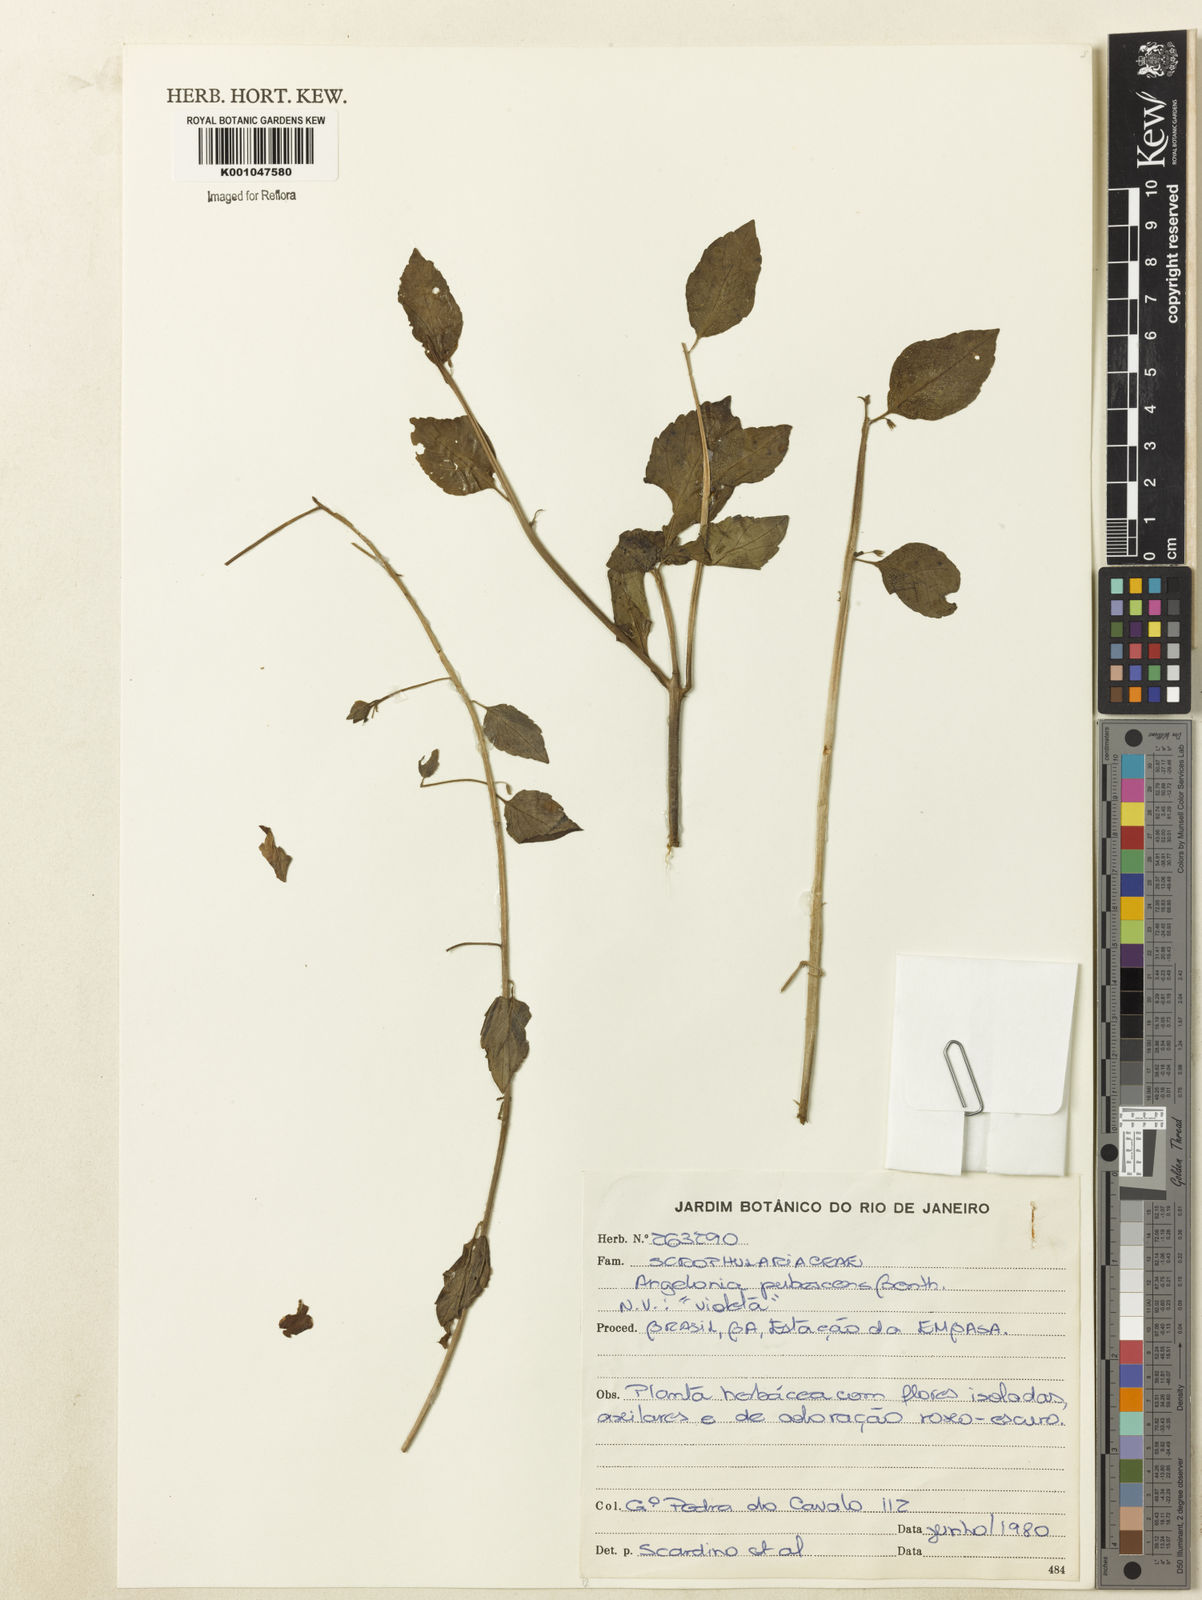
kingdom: Plantae
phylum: Tracheophyta
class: Magnoliopsida
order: Lamiales
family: Plantaginaceae
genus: Angelonia
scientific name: Angelonia pubescens
